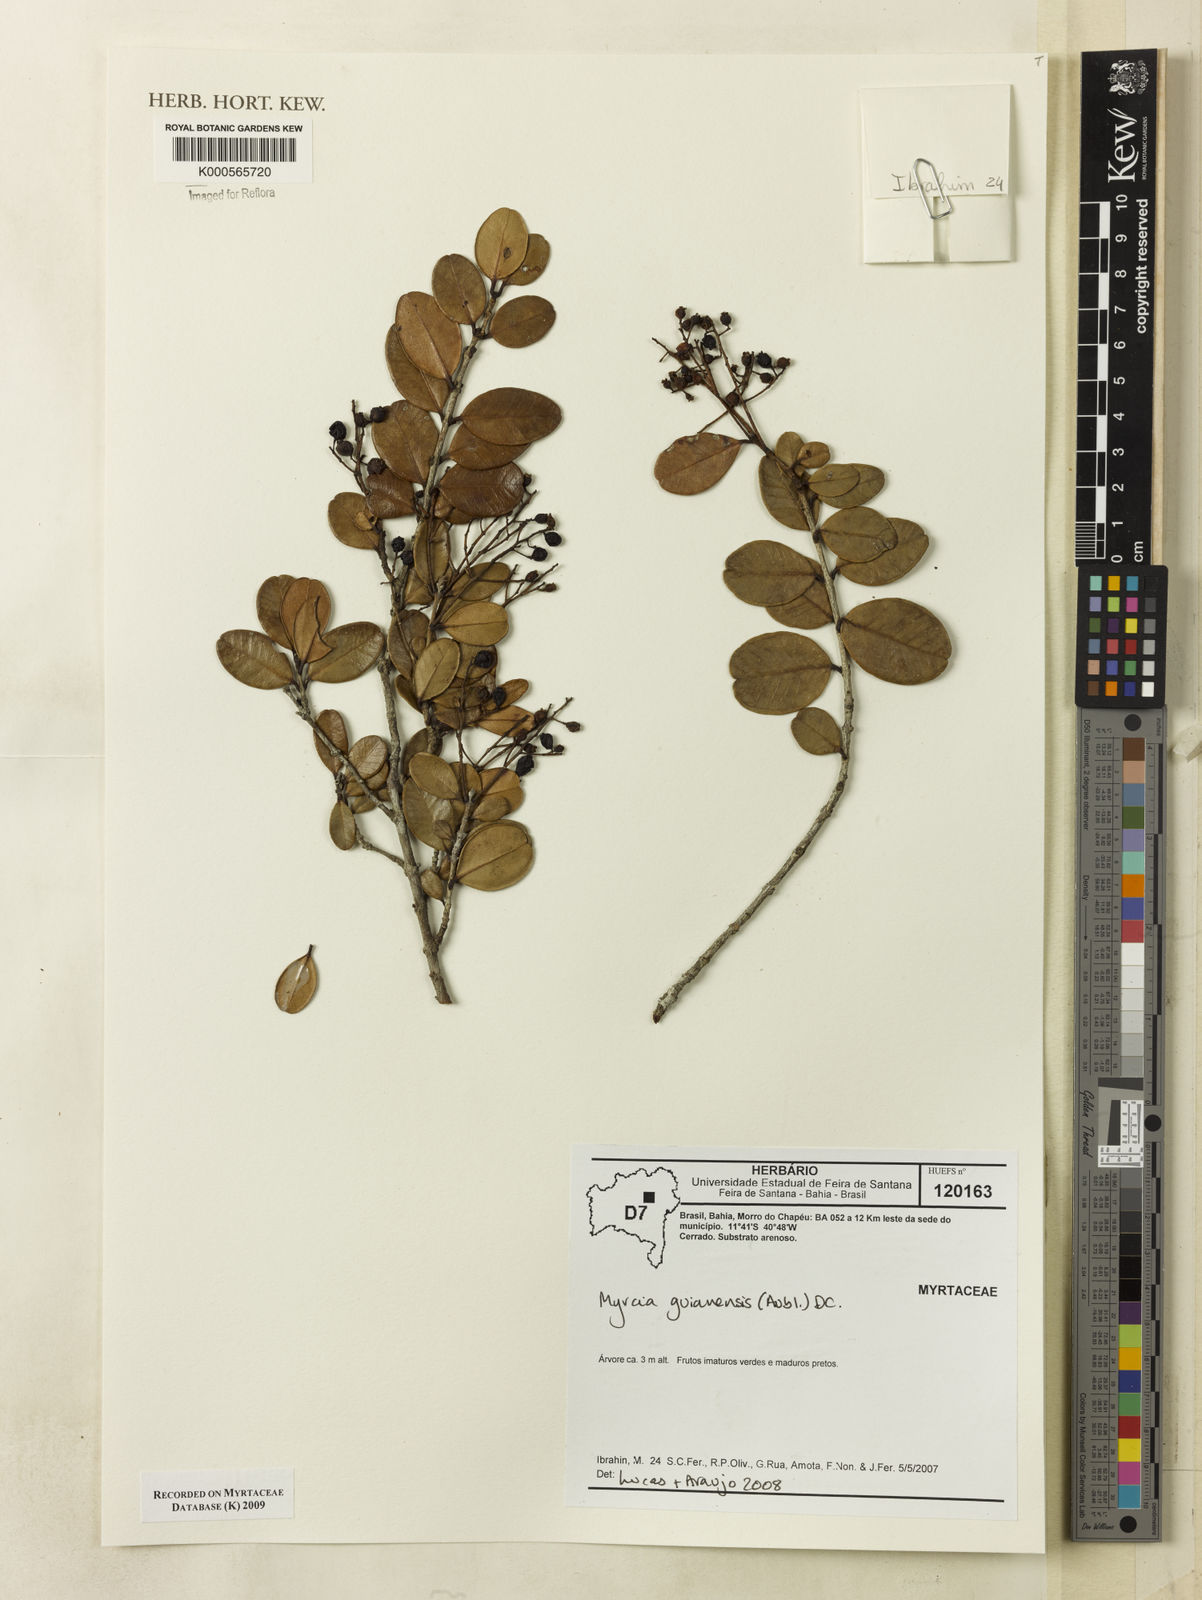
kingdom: Plantae
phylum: Tracheophyta
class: Magnoliopsida
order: Myrtales
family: Myrtaceae
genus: Myrcia
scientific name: Myrcia guianensis
